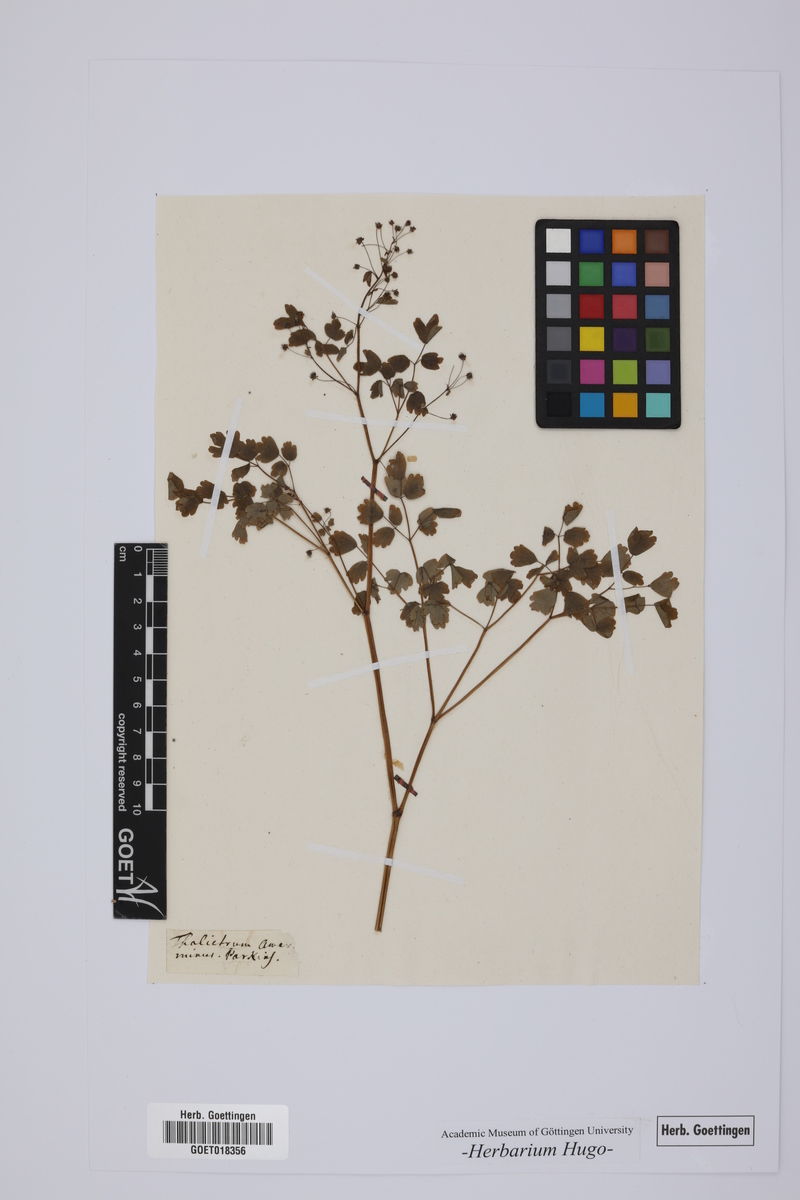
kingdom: Plantae
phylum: Tracheophyta
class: Magnoliopsida
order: Ranunculales
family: Ranunculaceae
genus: Thalictrum
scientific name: Thalictrum minus
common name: Lesser meadow-rue
